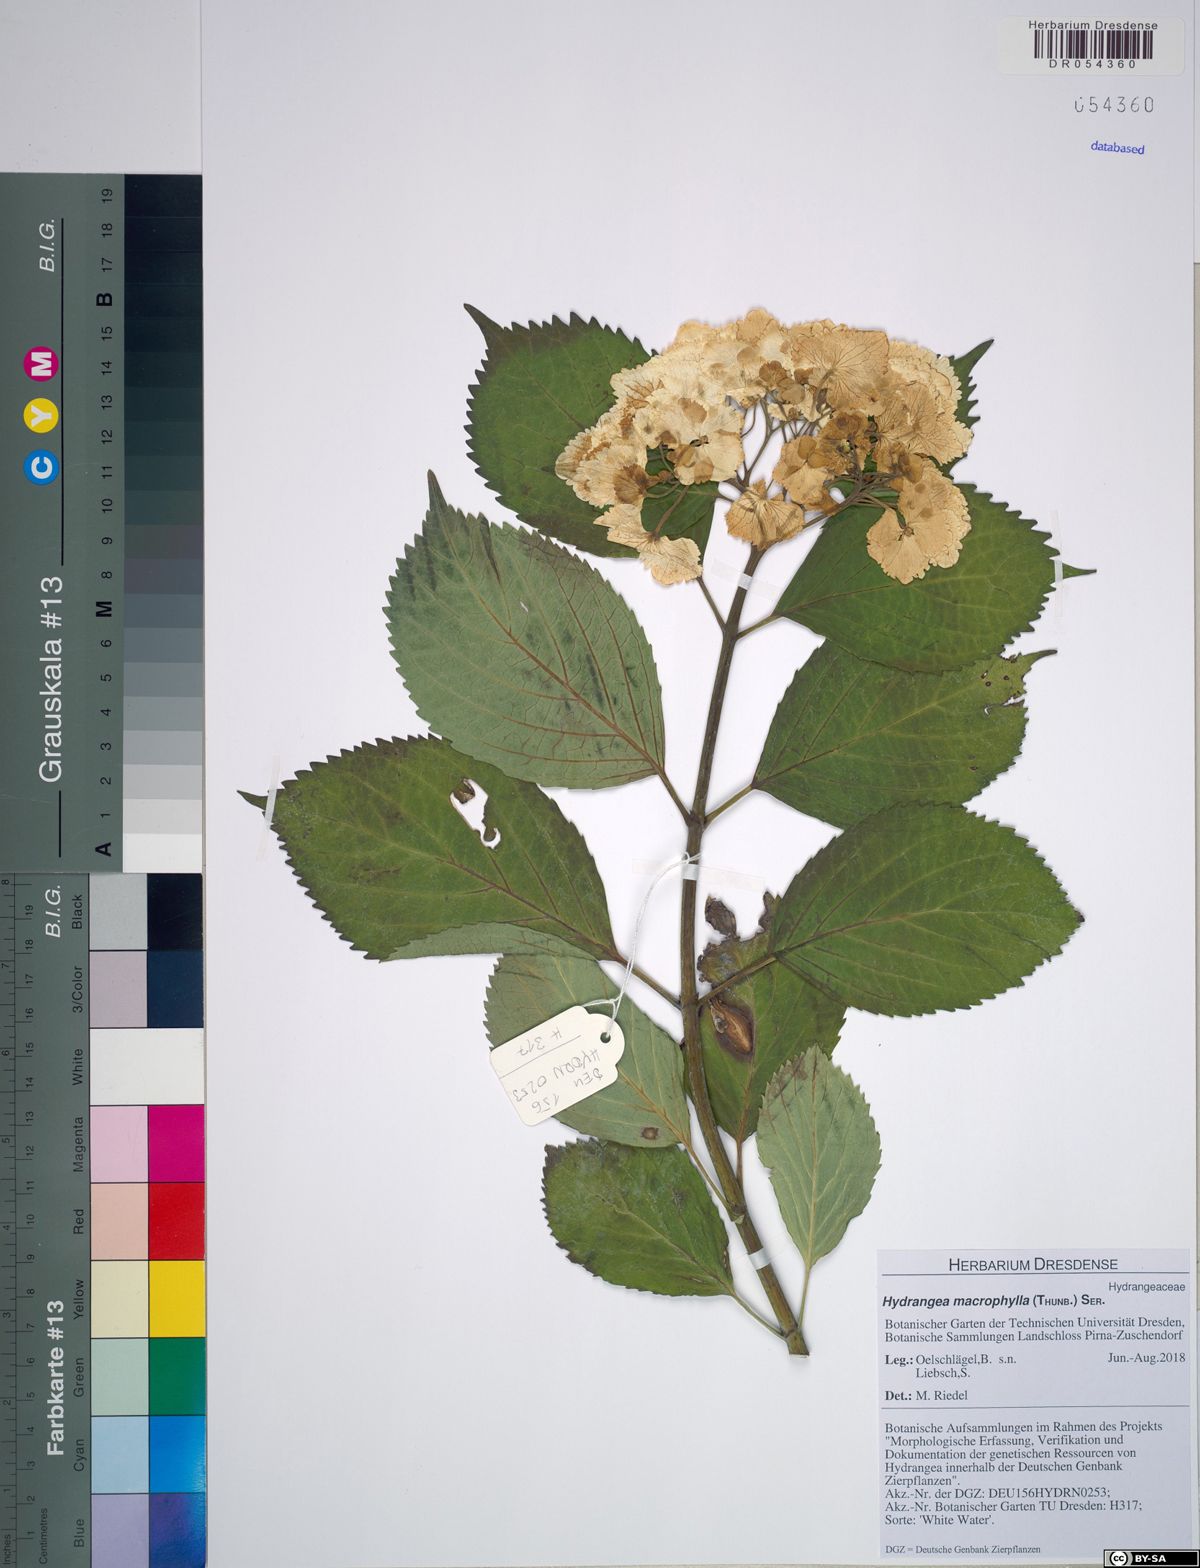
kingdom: Plantae
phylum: Tracheophyta
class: Magnoliopsida
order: Cornales
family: Hydrangeaceae
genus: Hydrangea
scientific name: Hydrangea macrophylla
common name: Hydrangea
